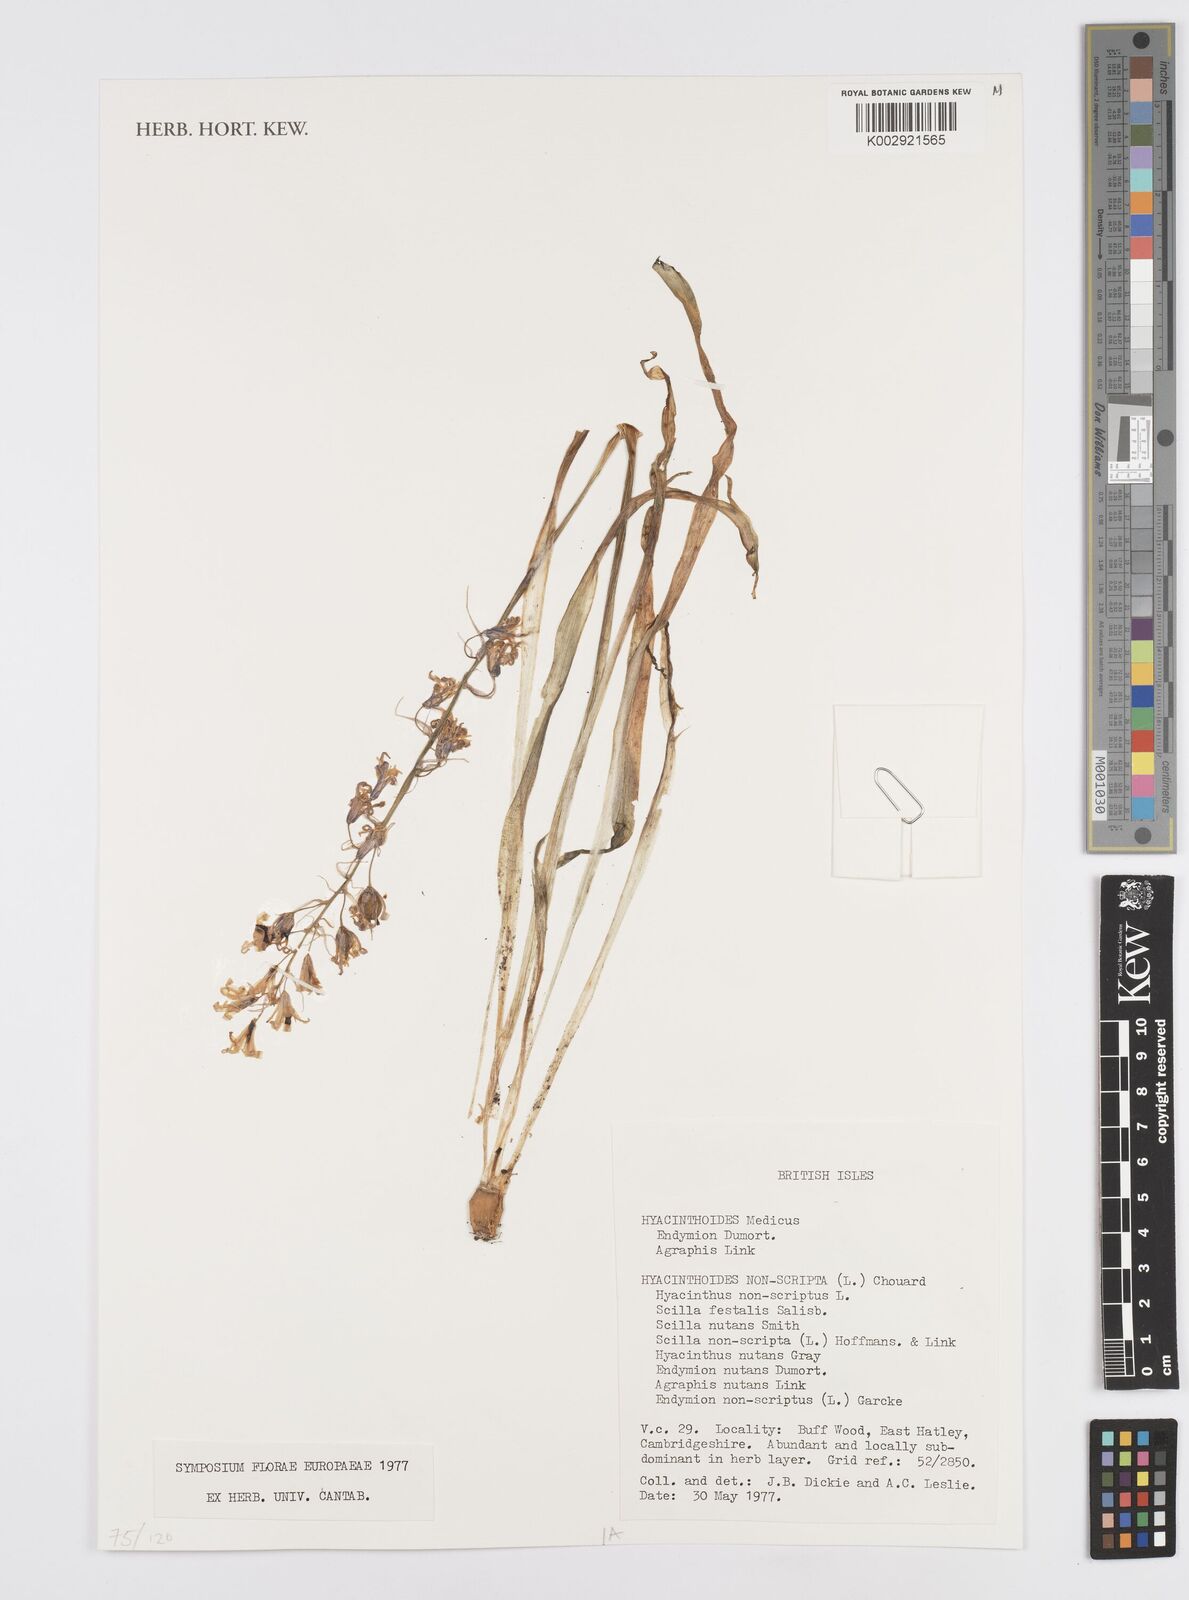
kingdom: Plantae
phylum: Tracheophyta
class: Liliopsida
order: Asparagales
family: Asparagaceae
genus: Hyacinthoides
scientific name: Hyacinthoides non-scripta
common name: Bluebell
